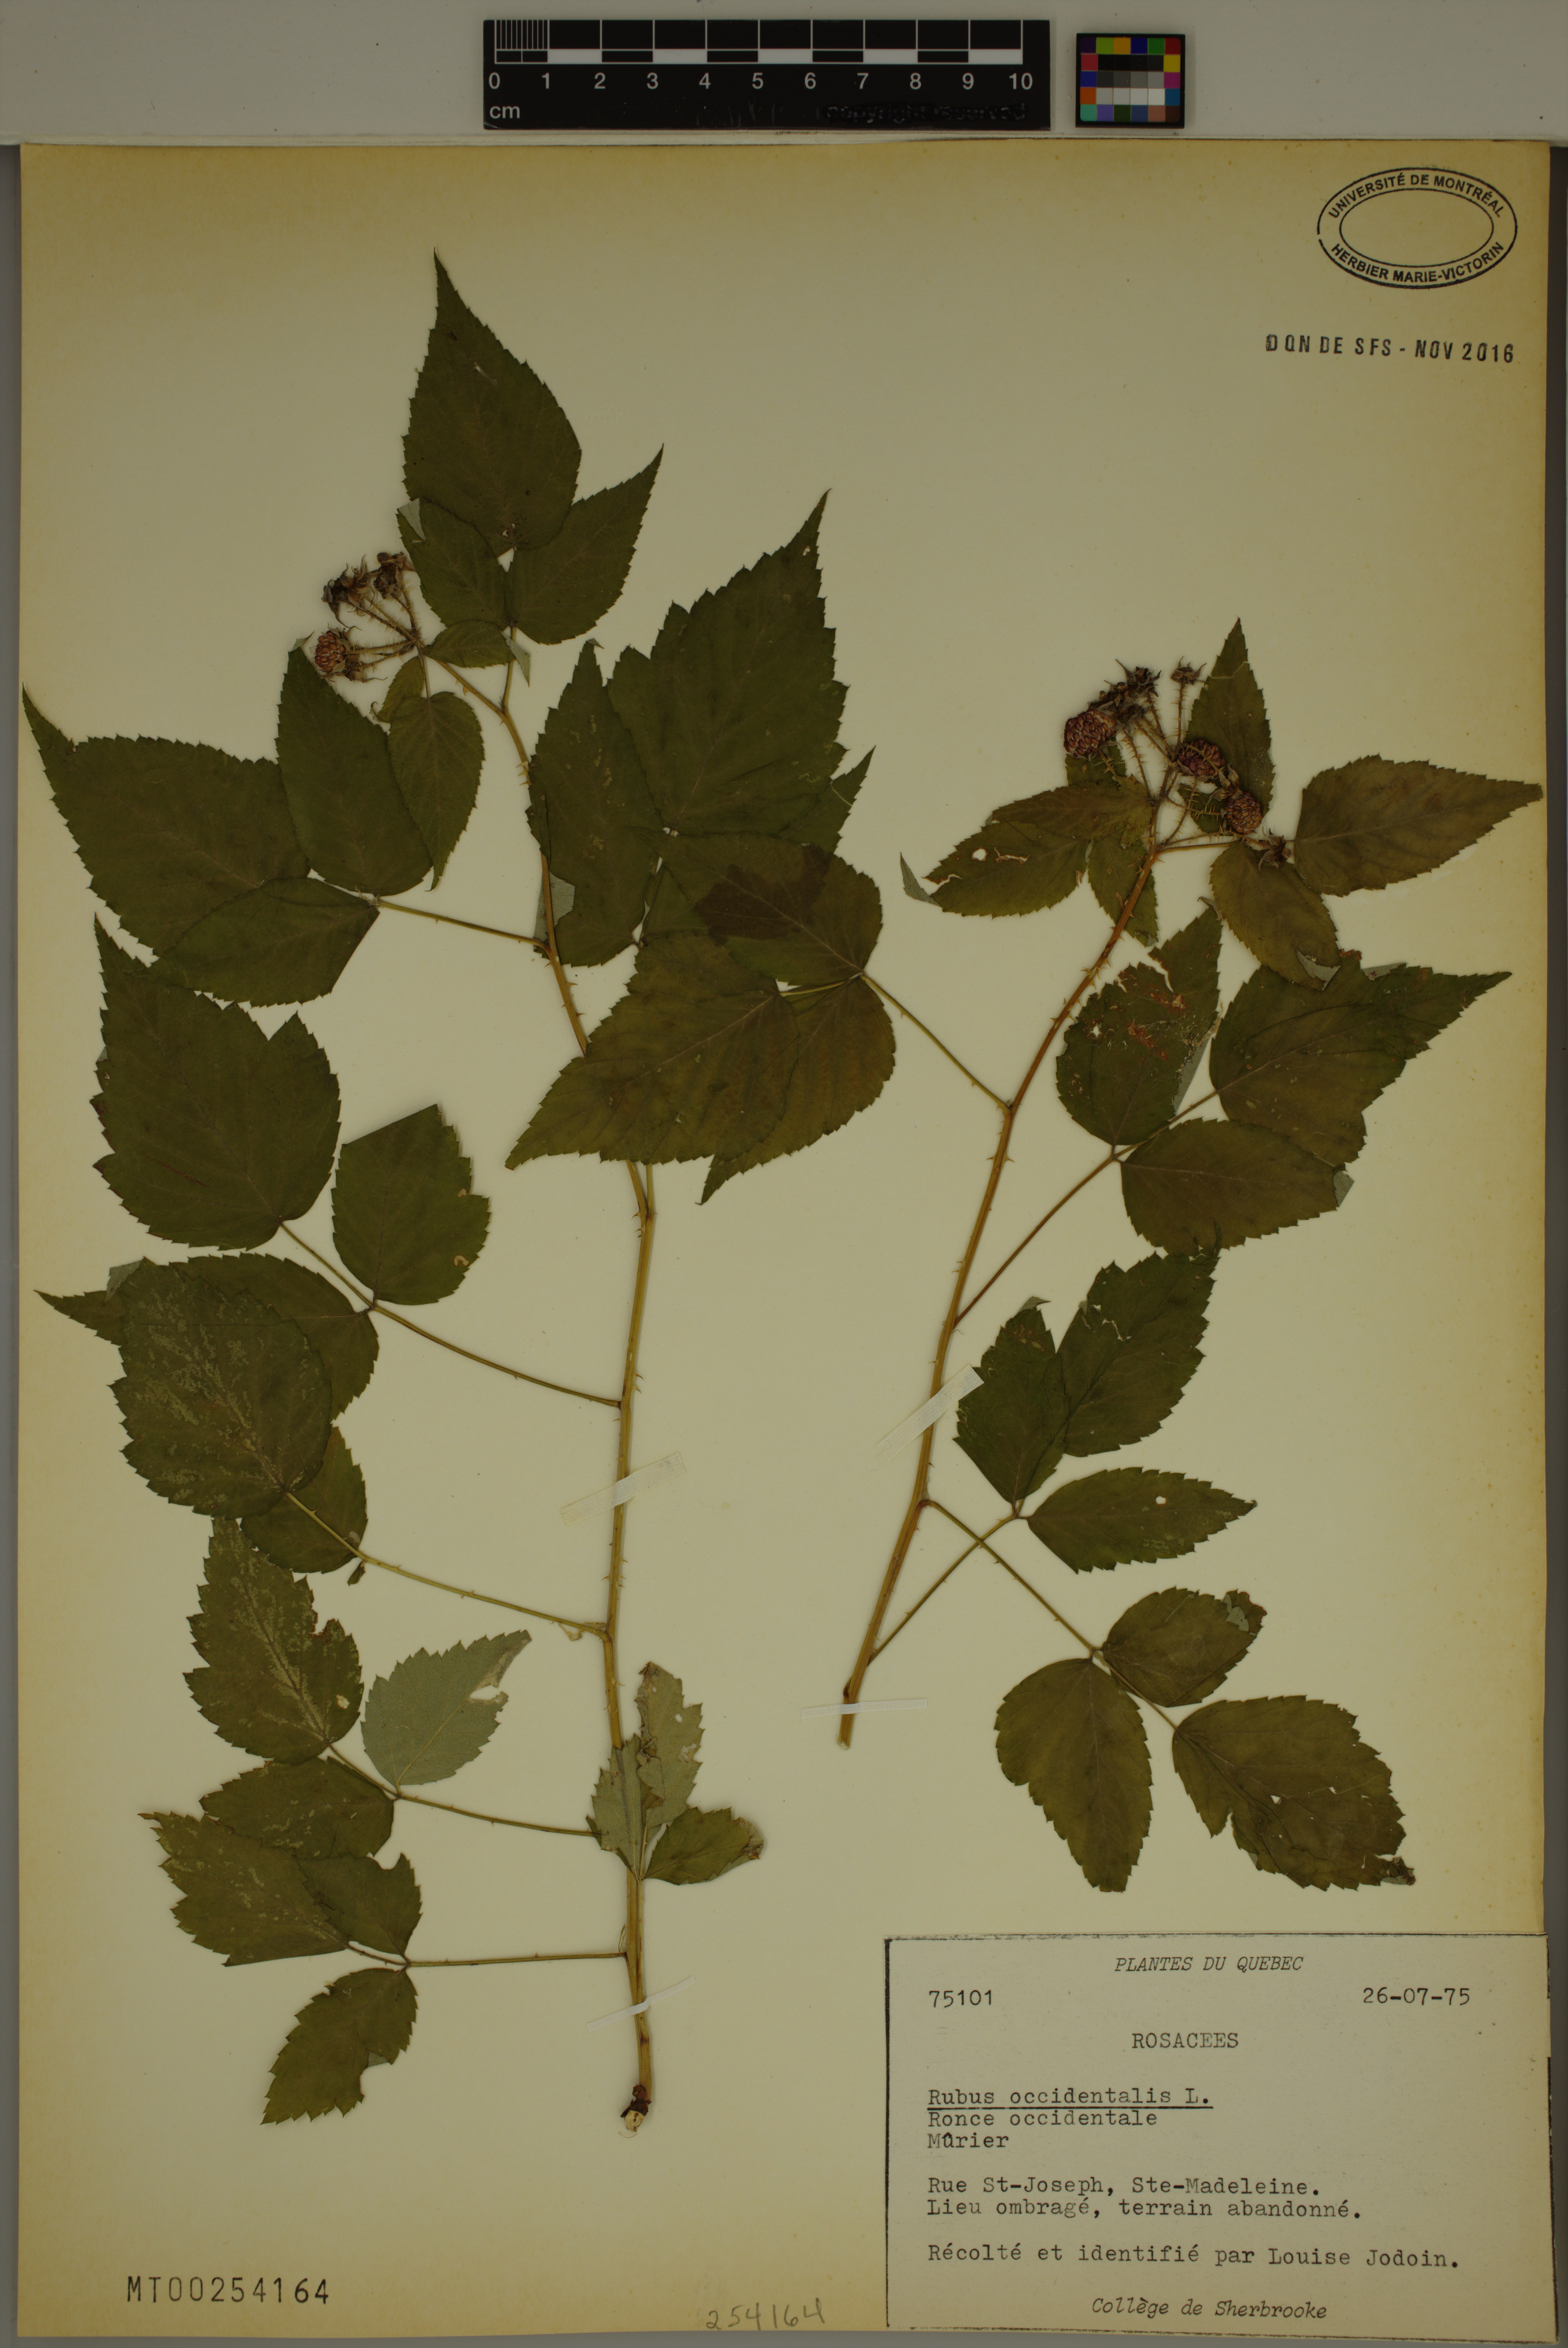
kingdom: Plantae
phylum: Tracheophyta
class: Magnoliopsida
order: Rosales
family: Rosaceae
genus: Rubus
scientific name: Rubus occidentalis
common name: Black raspberry
